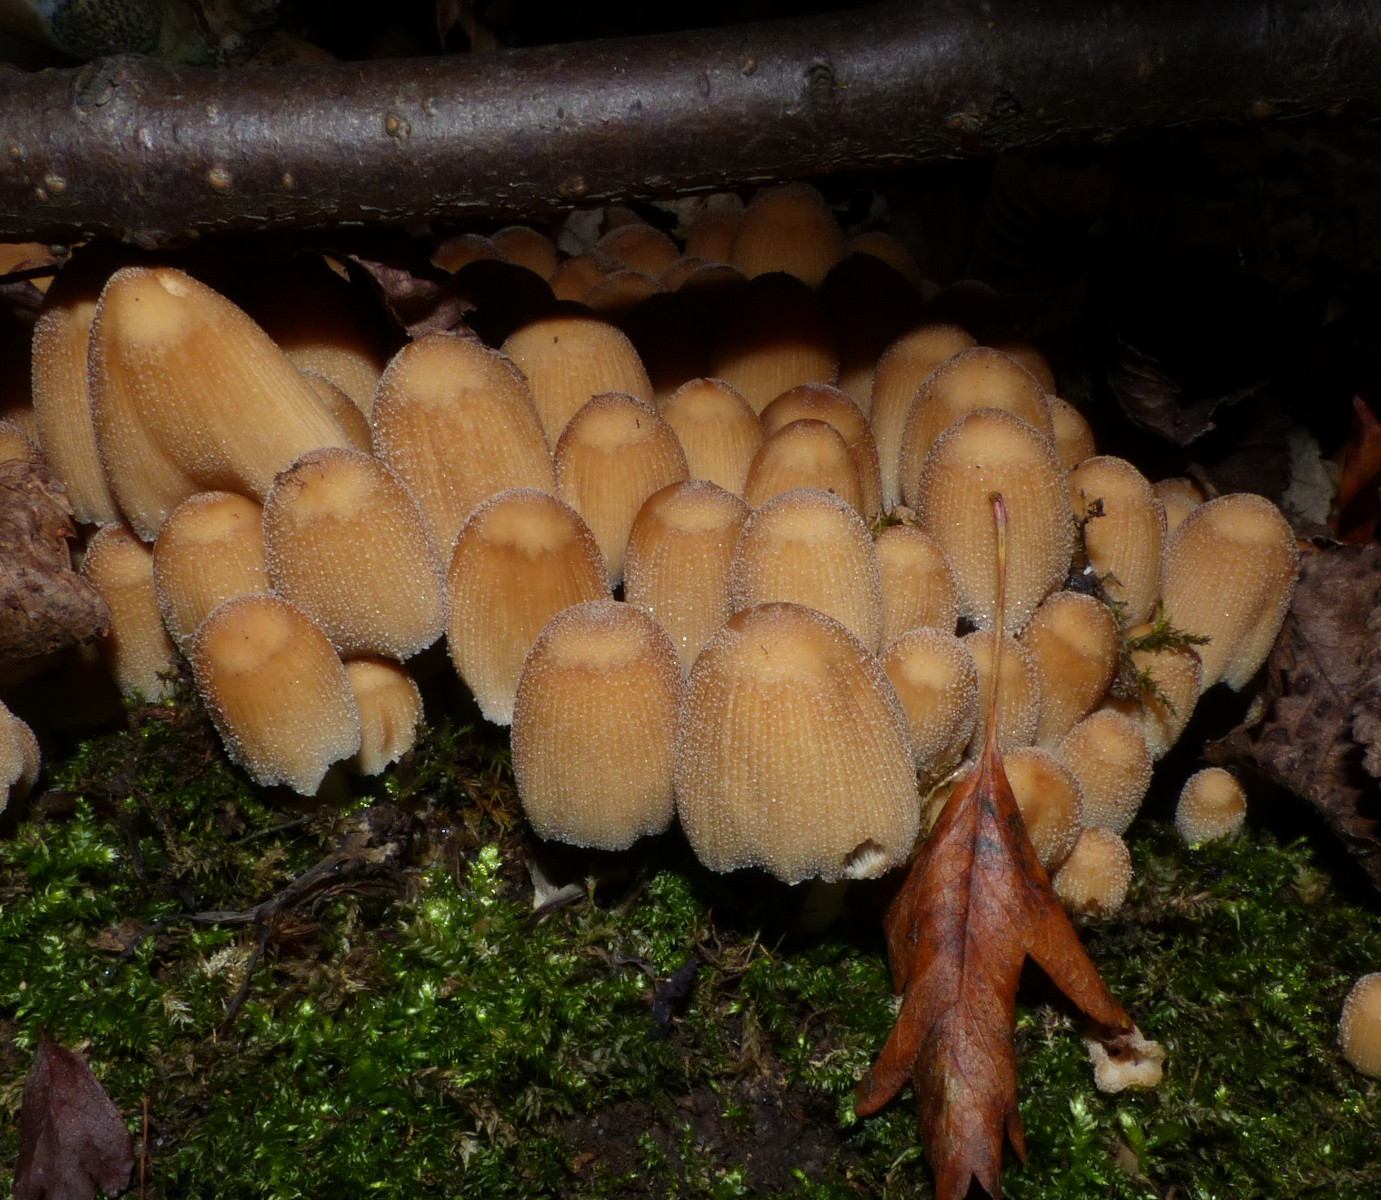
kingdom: Fungi
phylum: Basidiomycota
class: Agaricomycetes
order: Agaricales
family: Psathyrellaceae
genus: Coprinellus
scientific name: Coprinellus micaceus
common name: glimmer-blækhat
